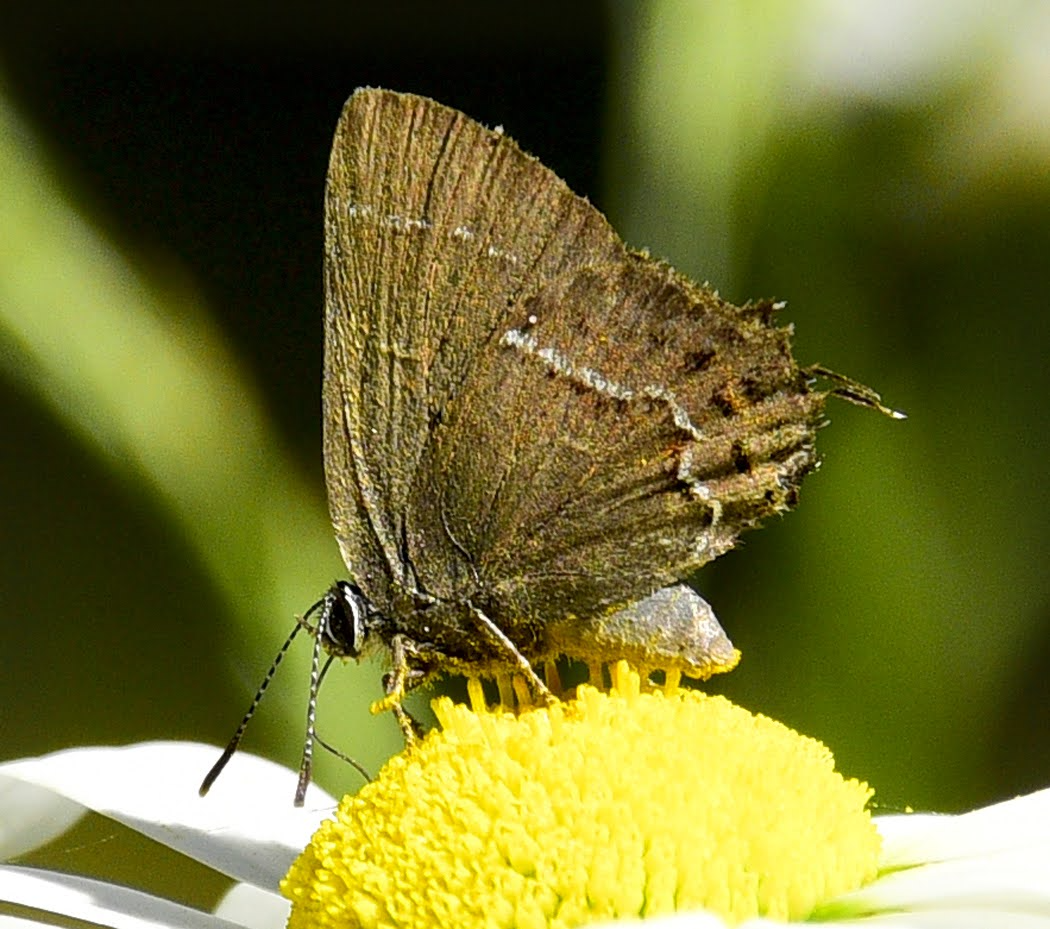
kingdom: Animalia
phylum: Arthropoda
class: Insecta
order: Lepidoptera
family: Lycaenidae
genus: Thecla
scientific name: Thecla johnsoni
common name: Johnson's Hairstreak
